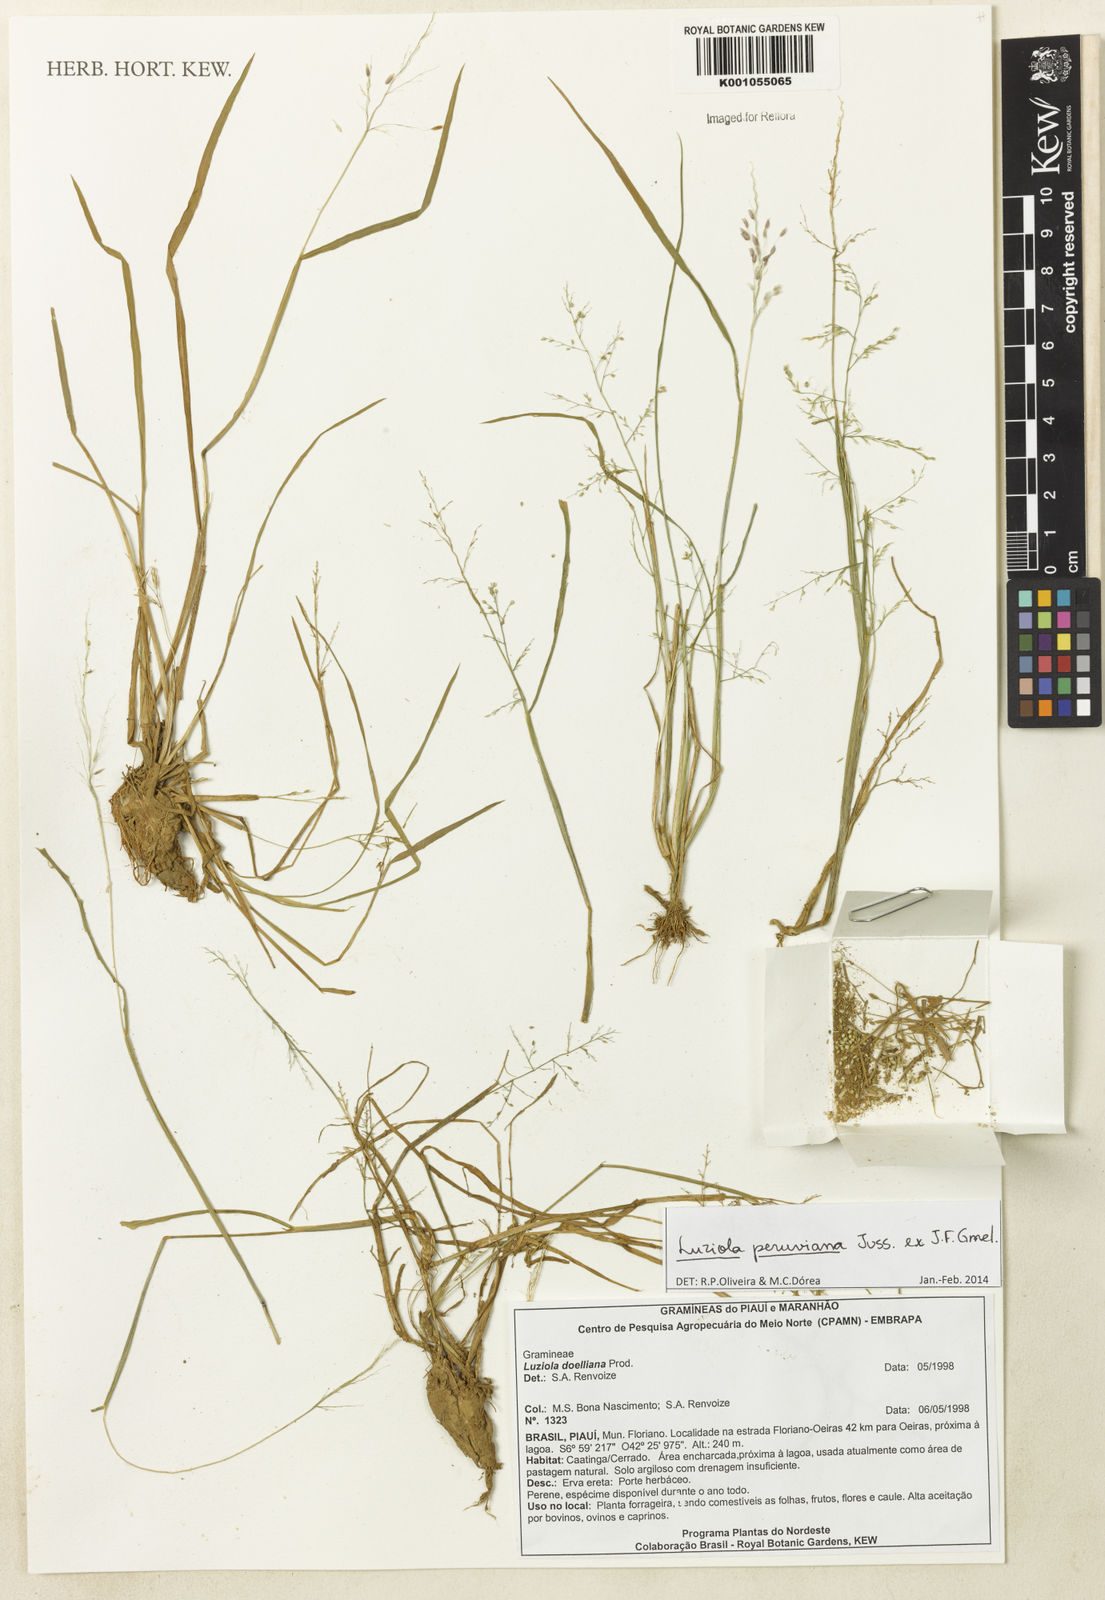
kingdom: Plantae
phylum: Tracheophyta
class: Liliopsida
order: Poales
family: Poaceae
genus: Luziola
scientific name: Luziola peruviana
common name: Peruvian watergrass
